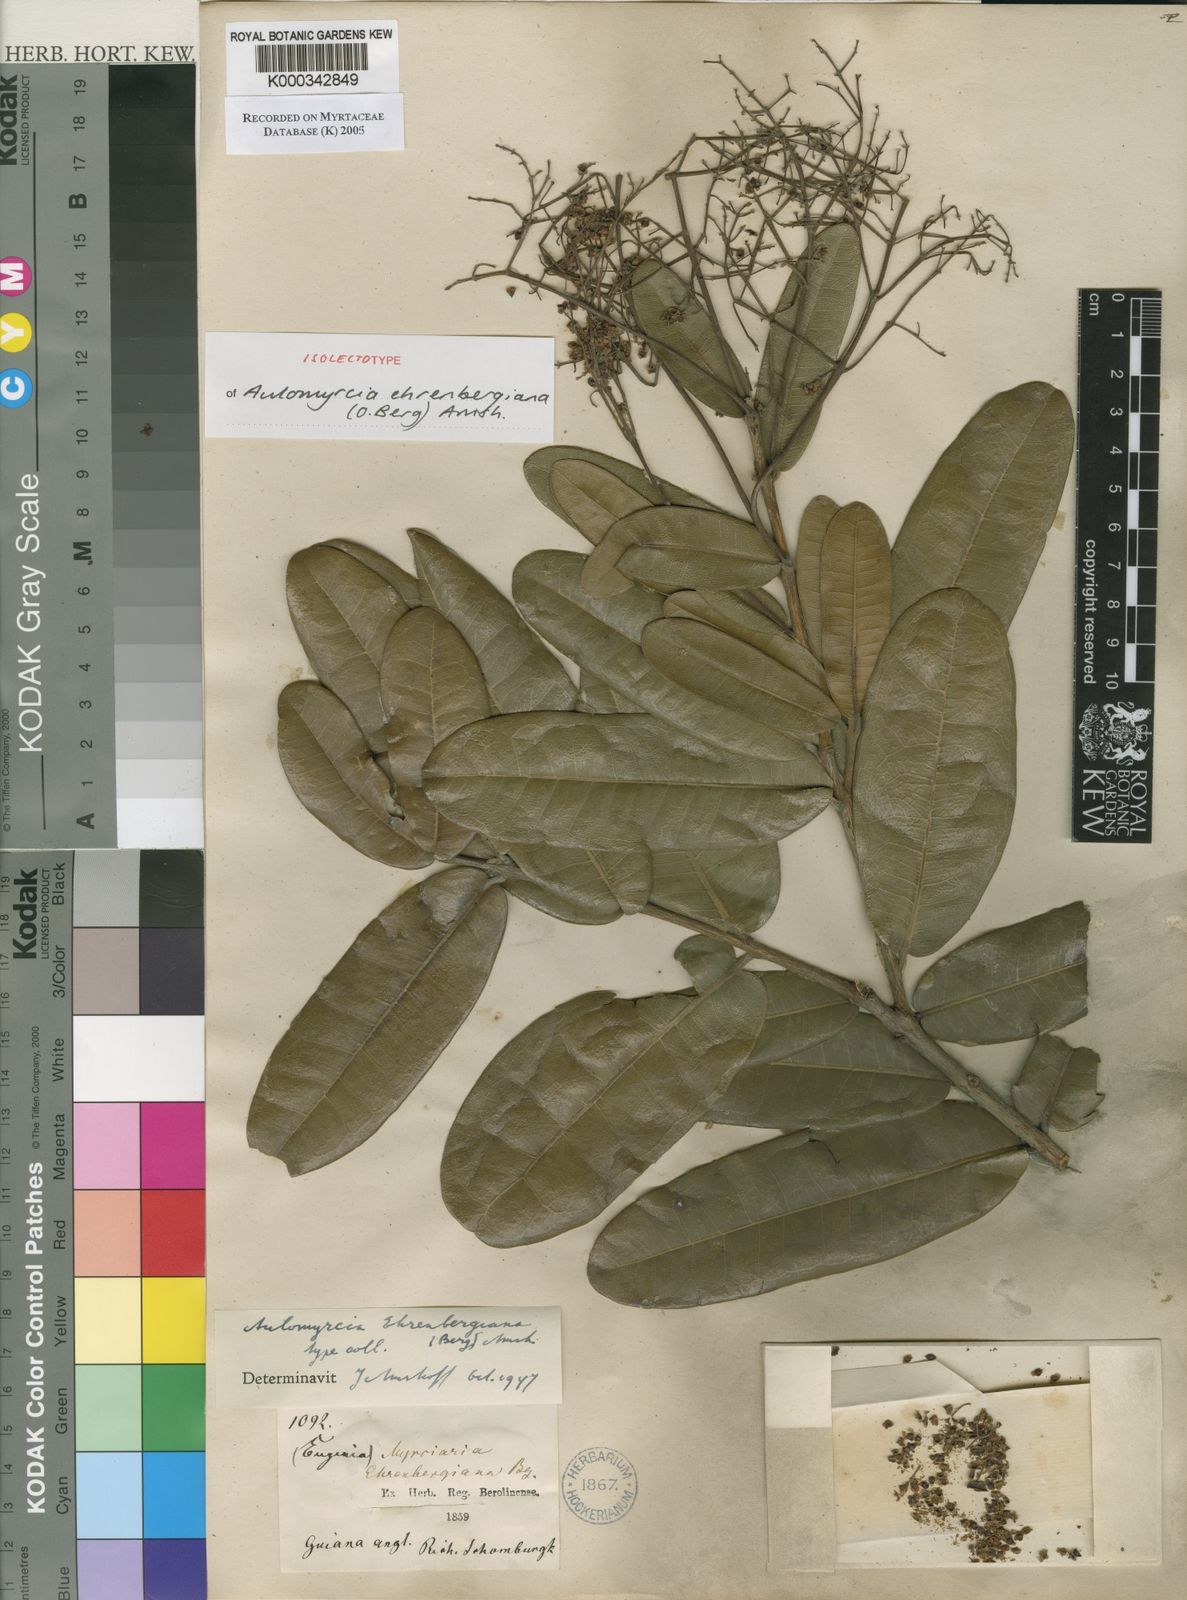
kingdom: Plantae
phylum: Tracheophyta
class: Magnoliopsida
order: Myrtales
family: Myrtaceae
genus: Myrcia
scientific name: Myrcia ehrenbergiana
